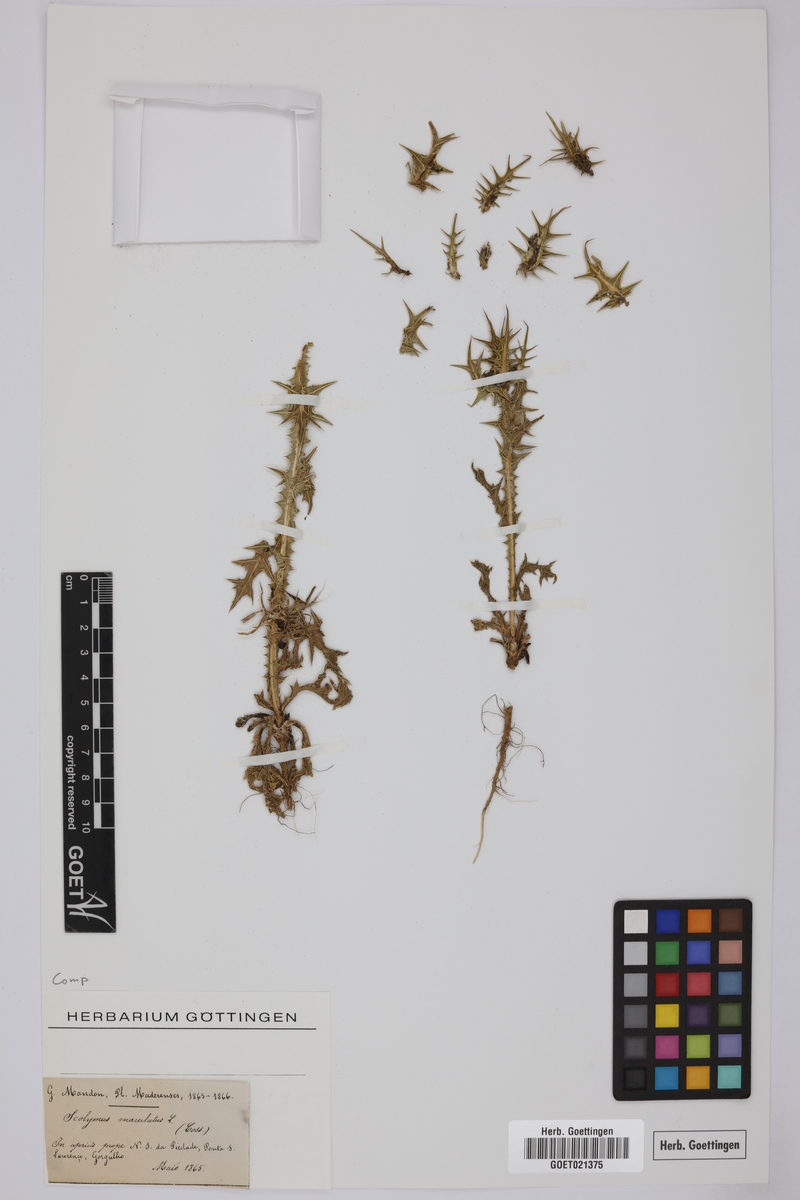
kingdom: Plantae
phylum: Tracheophyta
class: Magnoliopsida
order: Asterales
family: Asteraceae
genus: Scolymus
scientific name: Scolymus maculatus
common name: Spotted thistle
